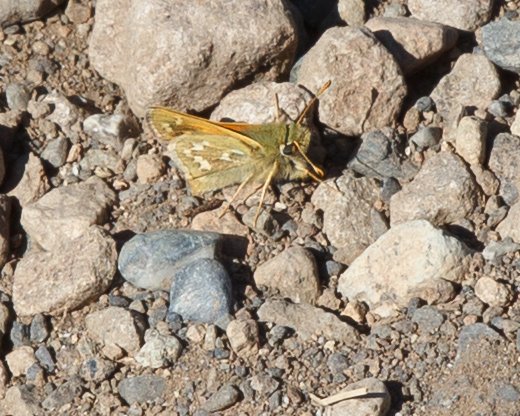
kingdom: Animalia
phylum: Arthropoda
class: Insecta
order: Lepidoptera
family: Hesperiidae
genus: Hesperia
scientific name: Hesperia comma
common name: Common Branded Skipper
